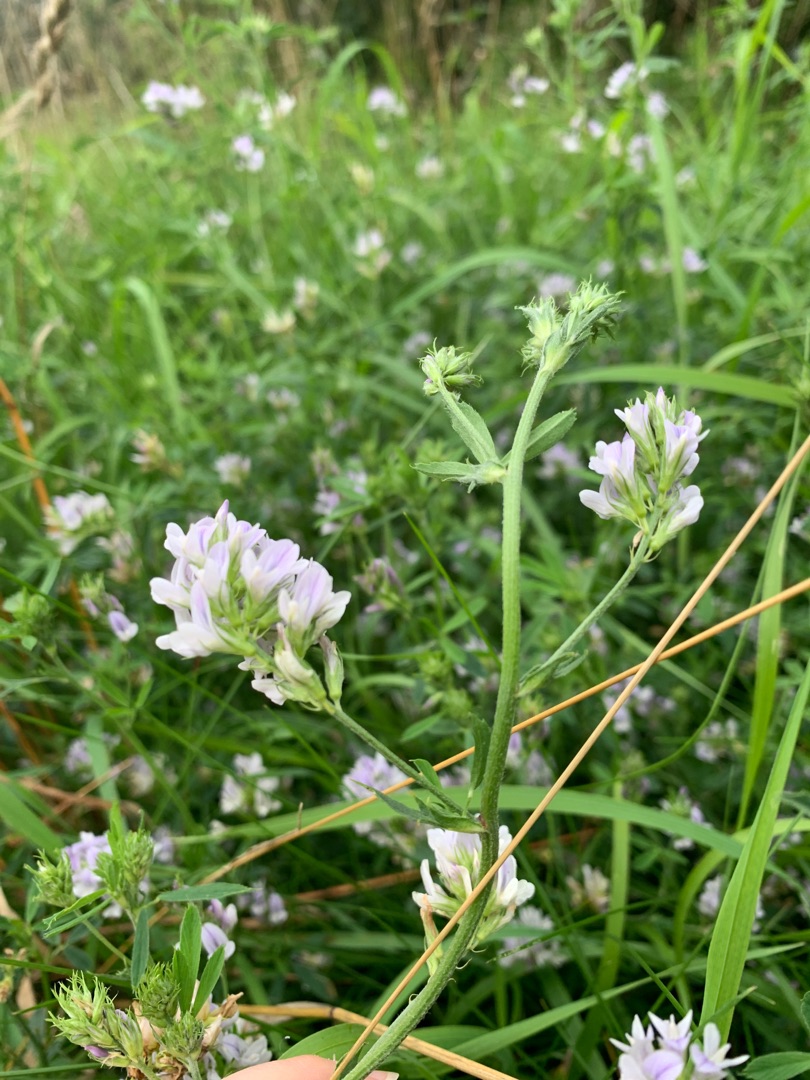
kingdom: Plantae
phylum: Tracheophyta
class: Magnoliopsida
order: Fabales
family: Fabaceae
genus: Medicago
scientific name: Medicago sativa
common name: Lucerne
